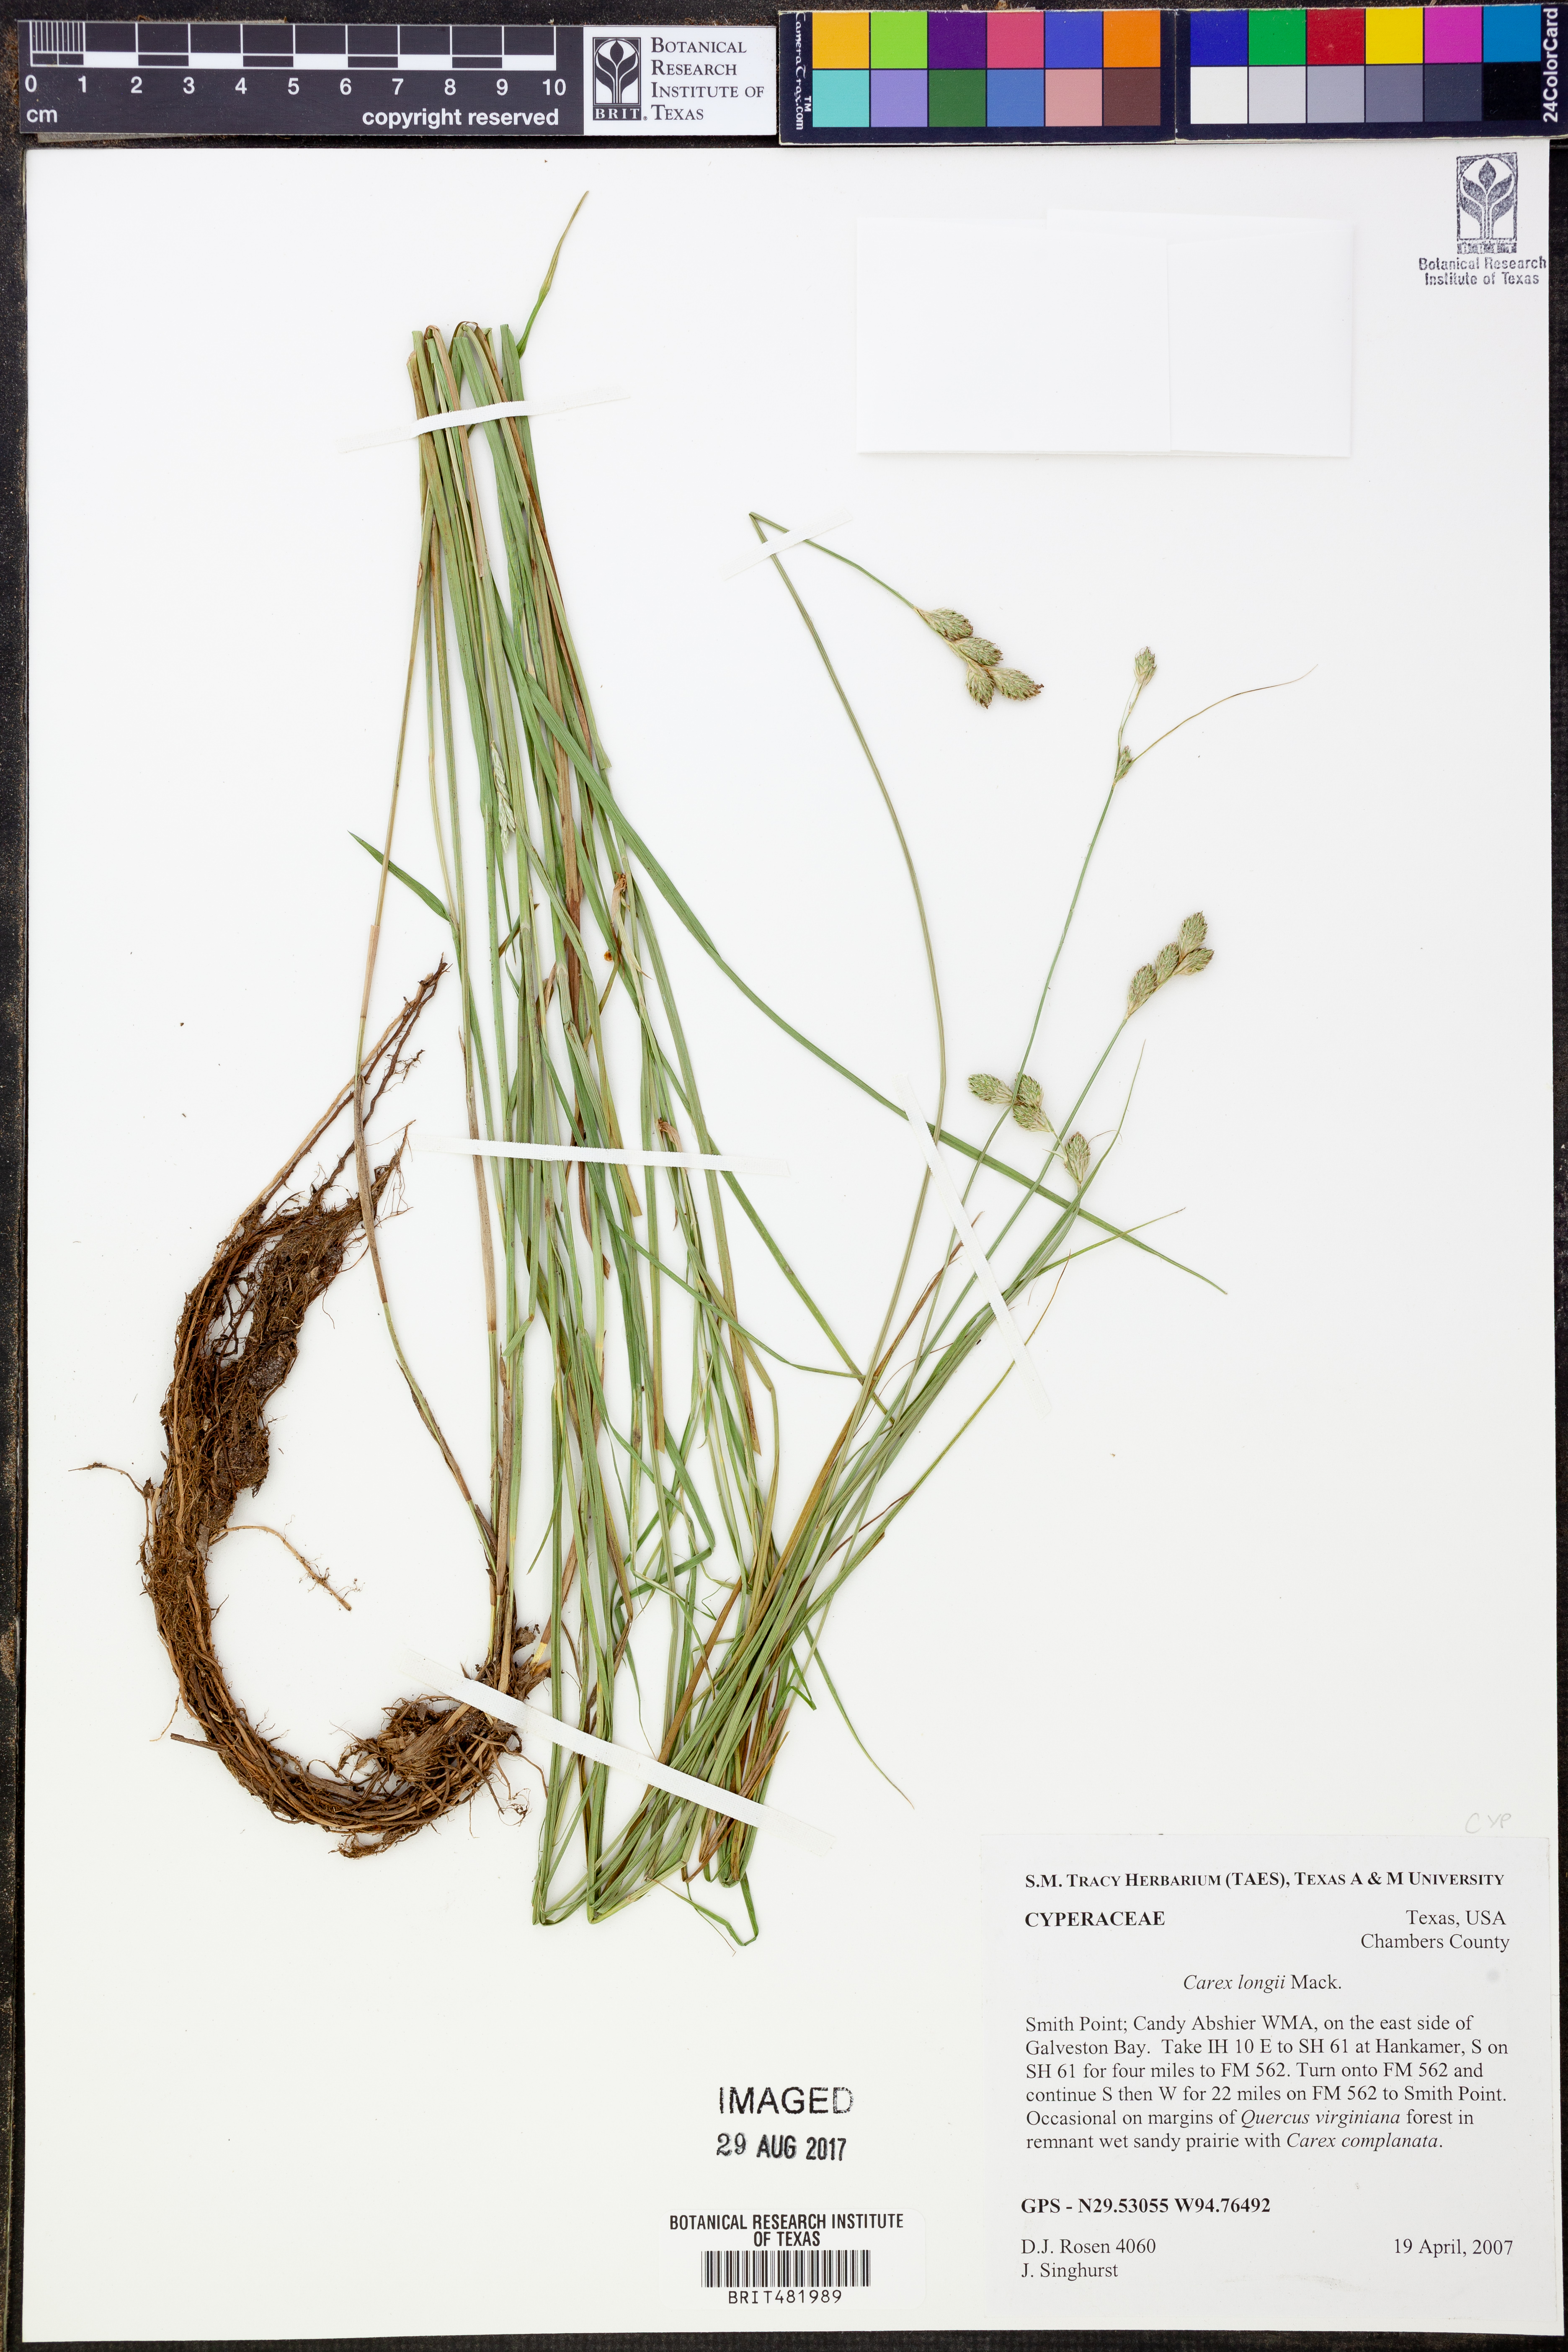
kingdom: Plantae
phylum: Tracheophyta
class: Liliopsida
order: Poales
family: Cyperaceae
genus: Carex
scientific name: Carex longii
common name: Long's sedge
